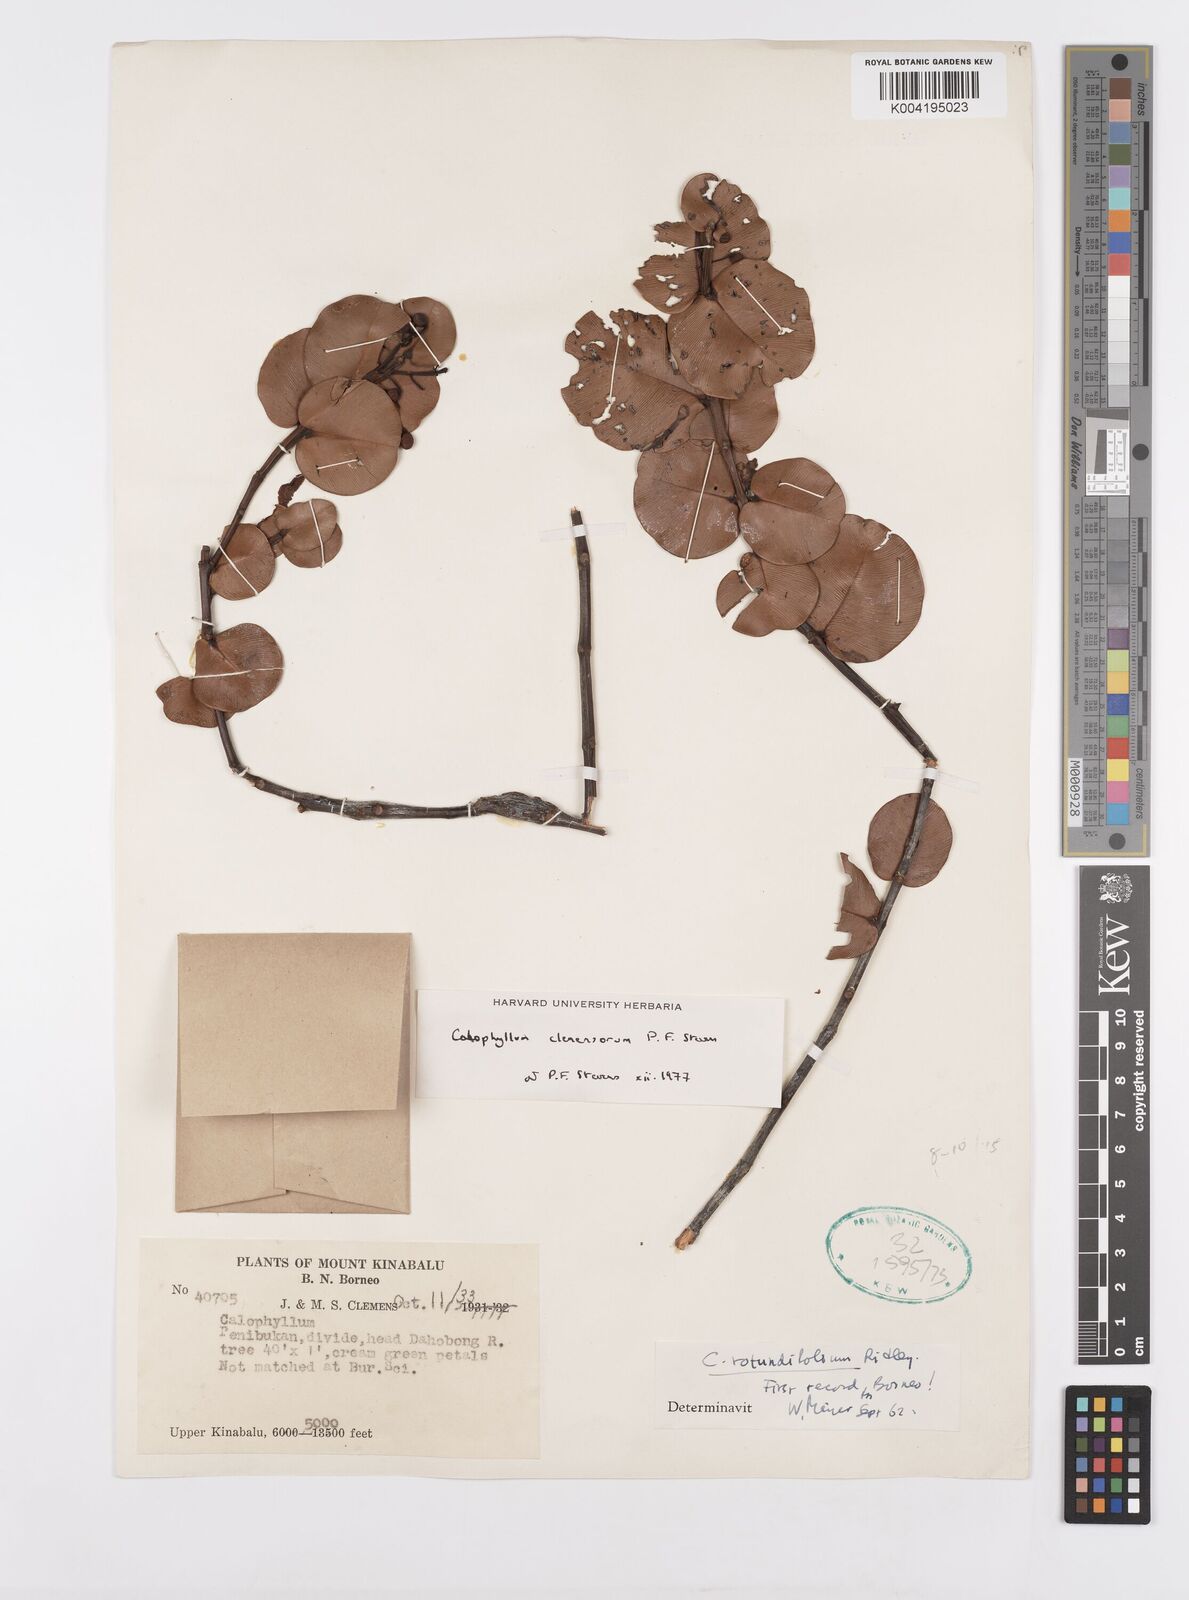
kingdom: Plantae
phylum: Tracheophyta
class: Magnoliopsida
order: Malpighiales
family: Calophyllaceae
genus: Calophyllum
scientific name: Calophyllum clemensiorum
